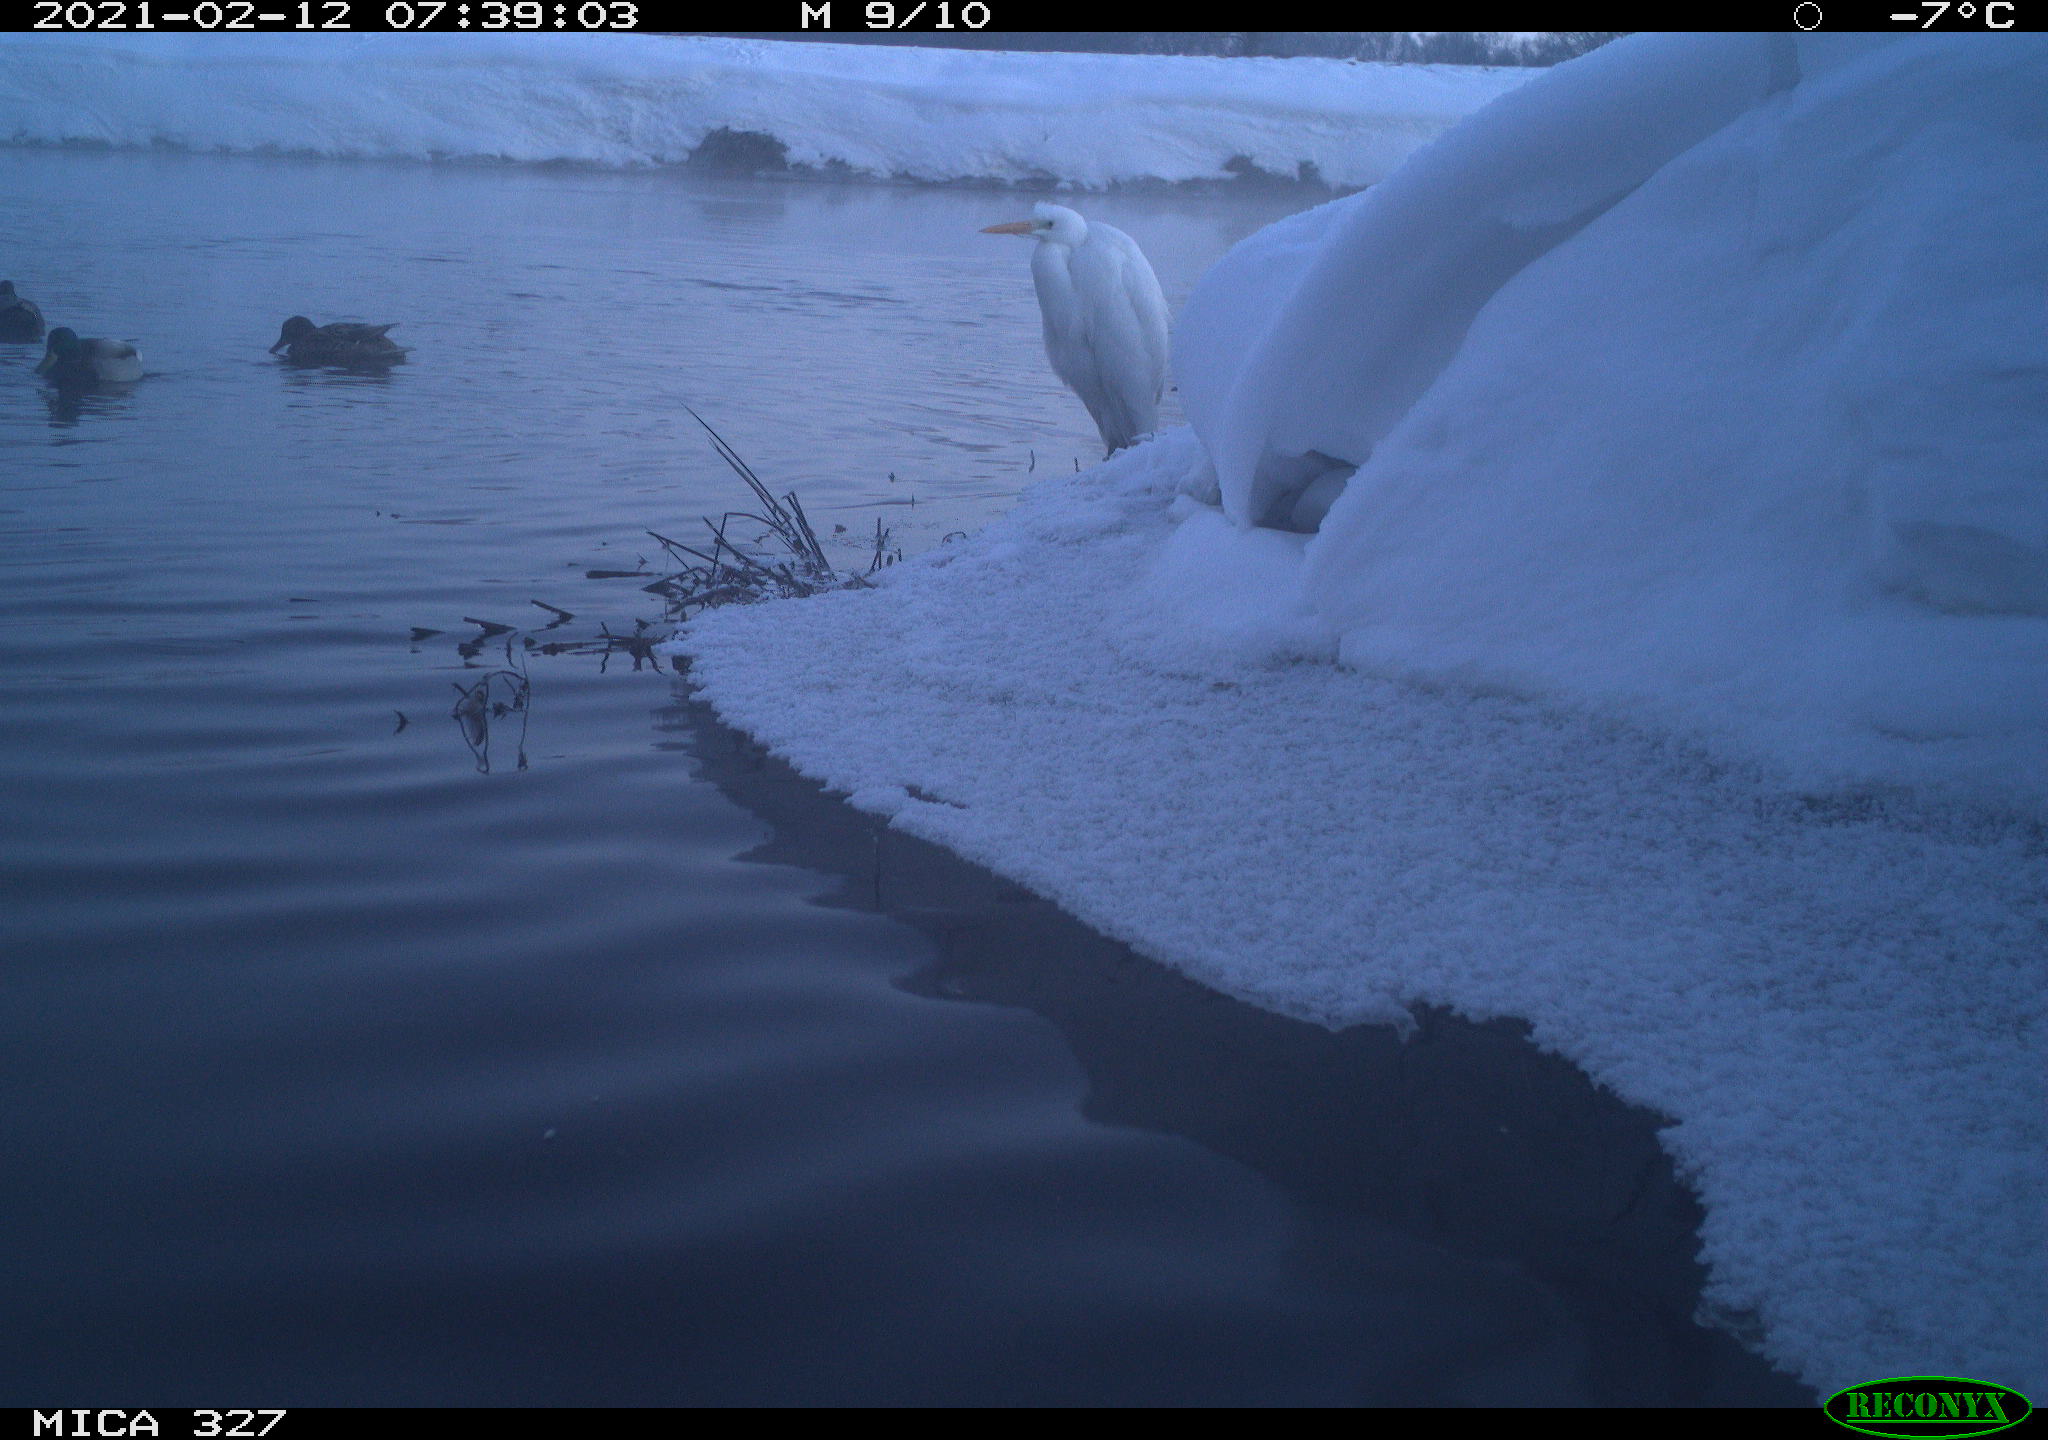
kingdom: Animalia
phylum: Chordata
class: Aves
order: Pelecaniformes
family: Ardeidae
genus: Ardea
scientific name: Ardea alba
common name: Great egret
